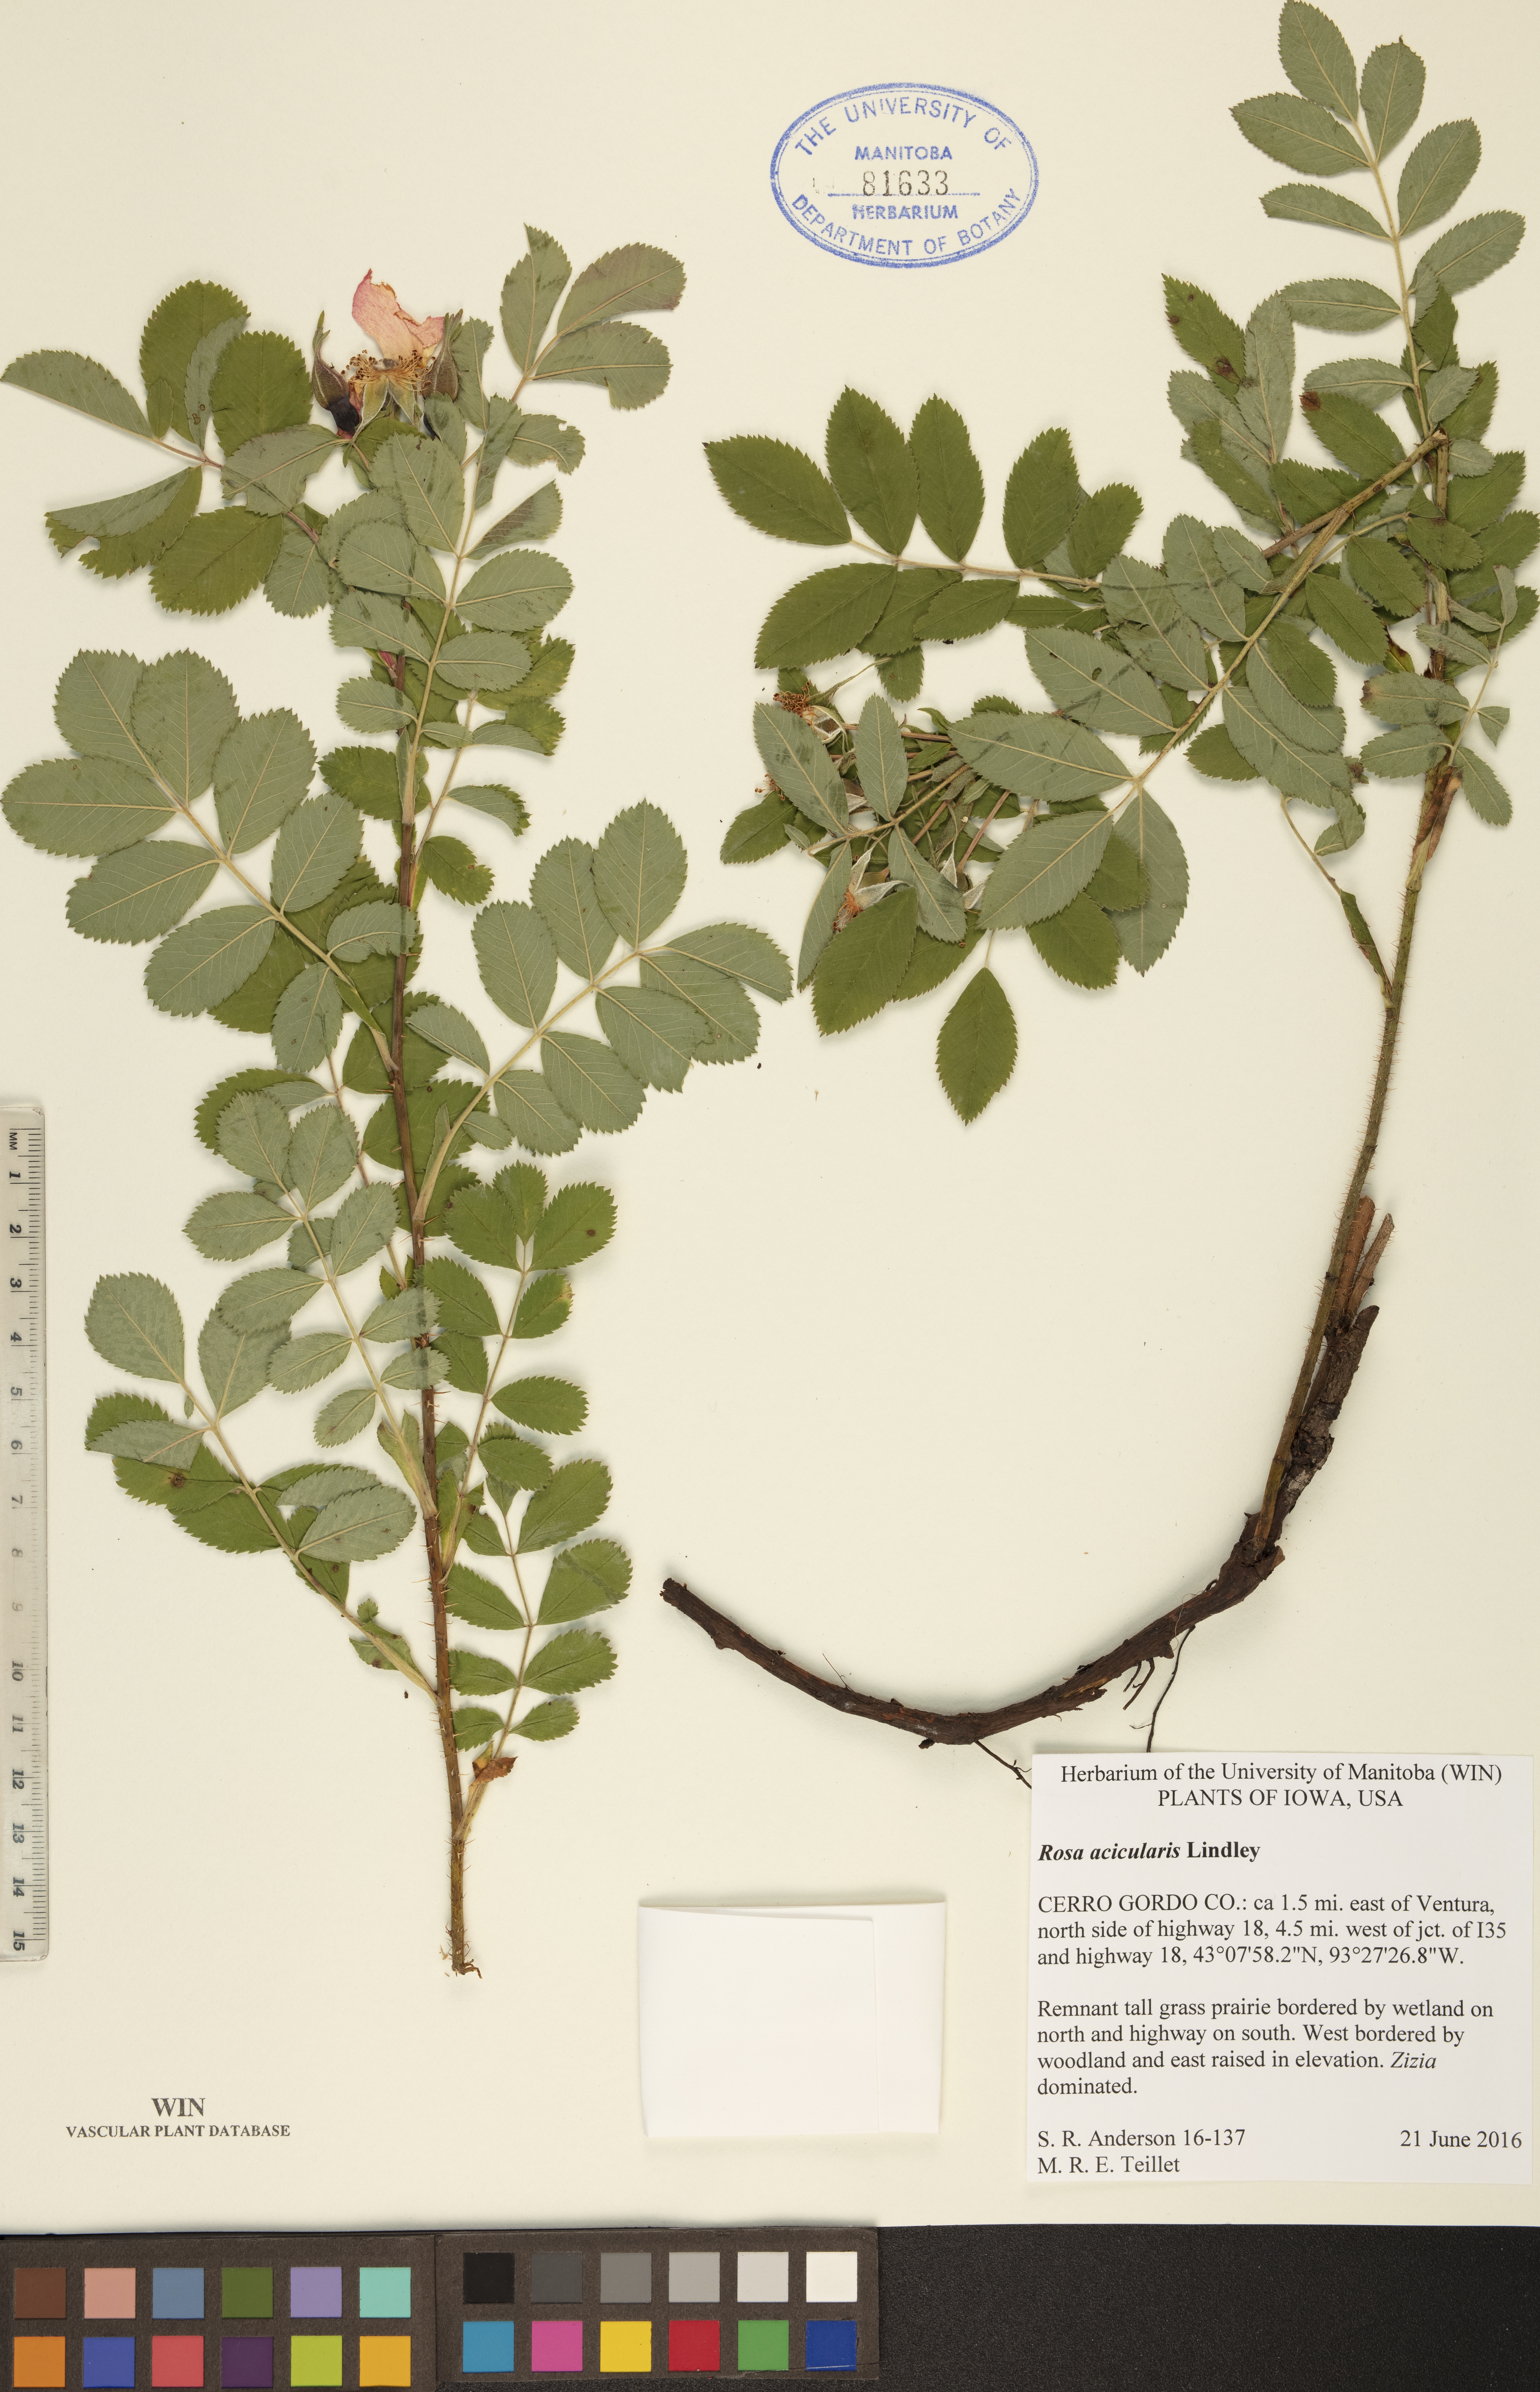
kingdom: Plantae
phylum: Tracheophyta
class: Magnoliopsida
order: Rosales
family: Rosaceae
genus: Rosa
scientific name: Rosa acicularis
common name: Prickly rose
